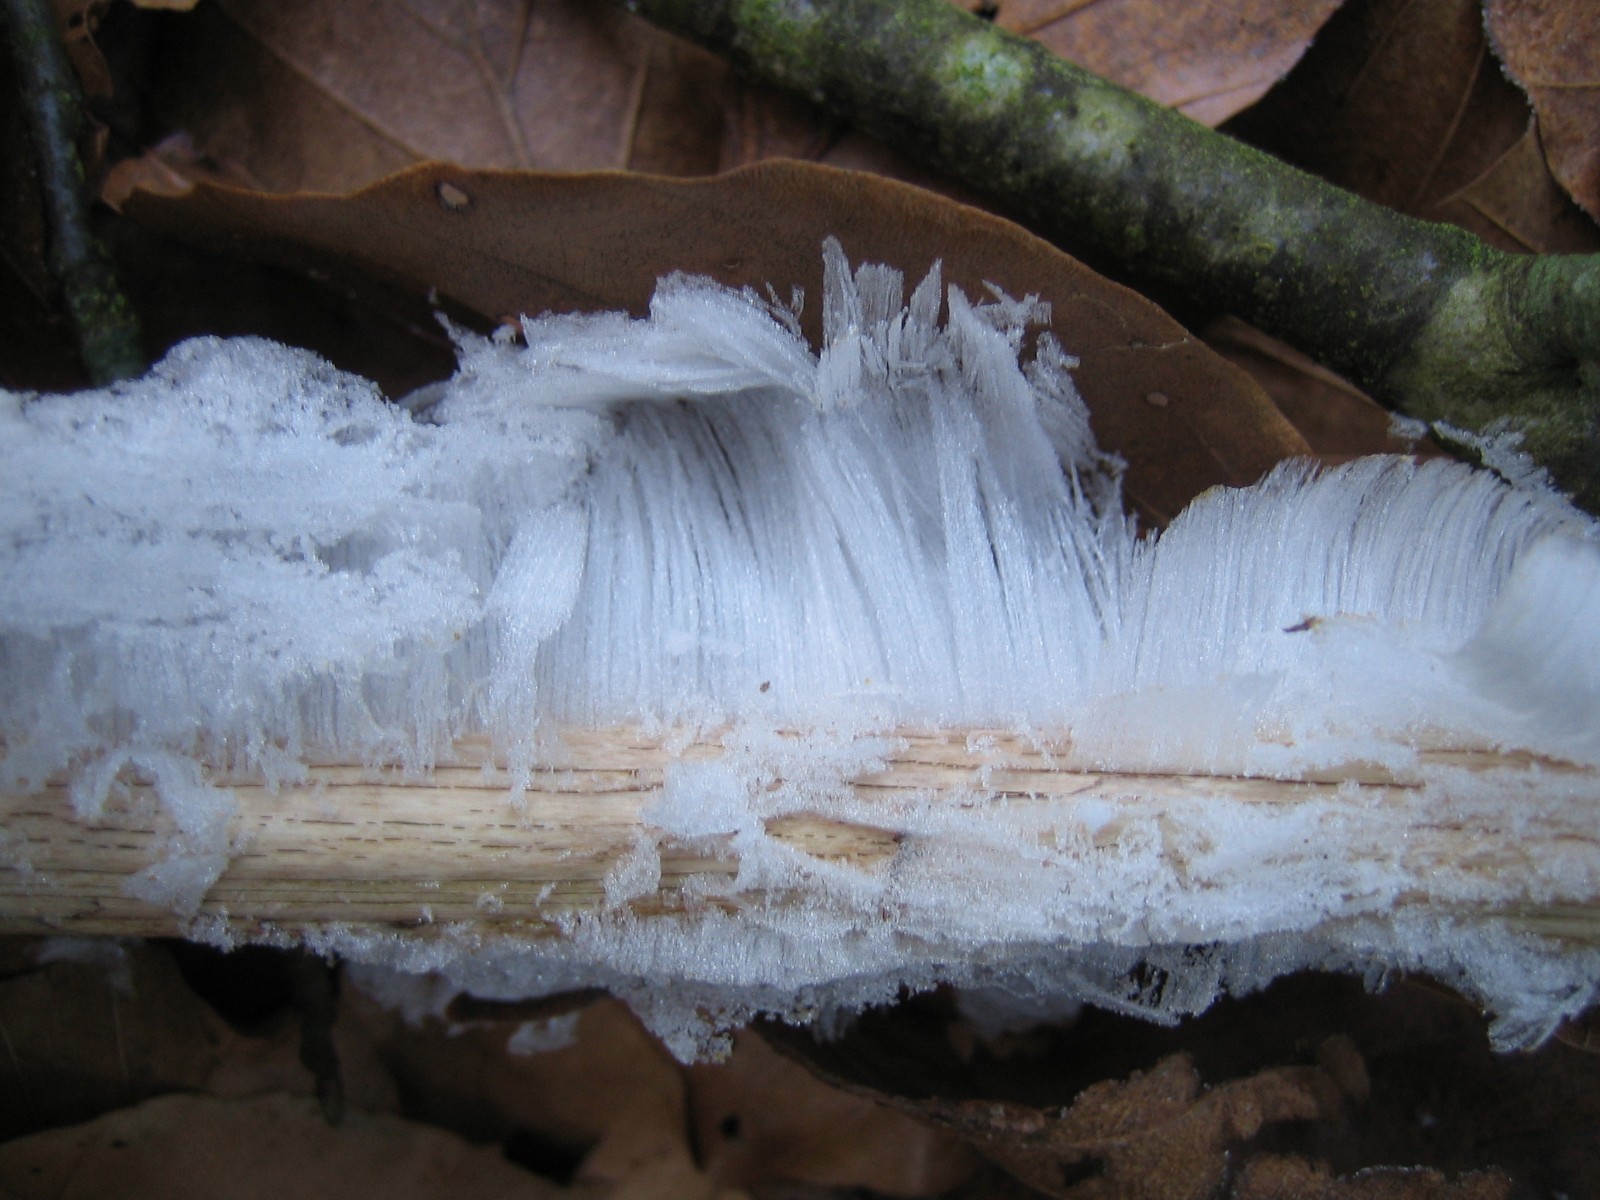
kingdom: Fungi
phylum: Basidiomycota
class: Tremellomycetes
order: Tremellales
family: Exidiaceae
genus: Exidiopsis
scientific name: Exidiopsis effusa
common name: smuk bævrehinde
